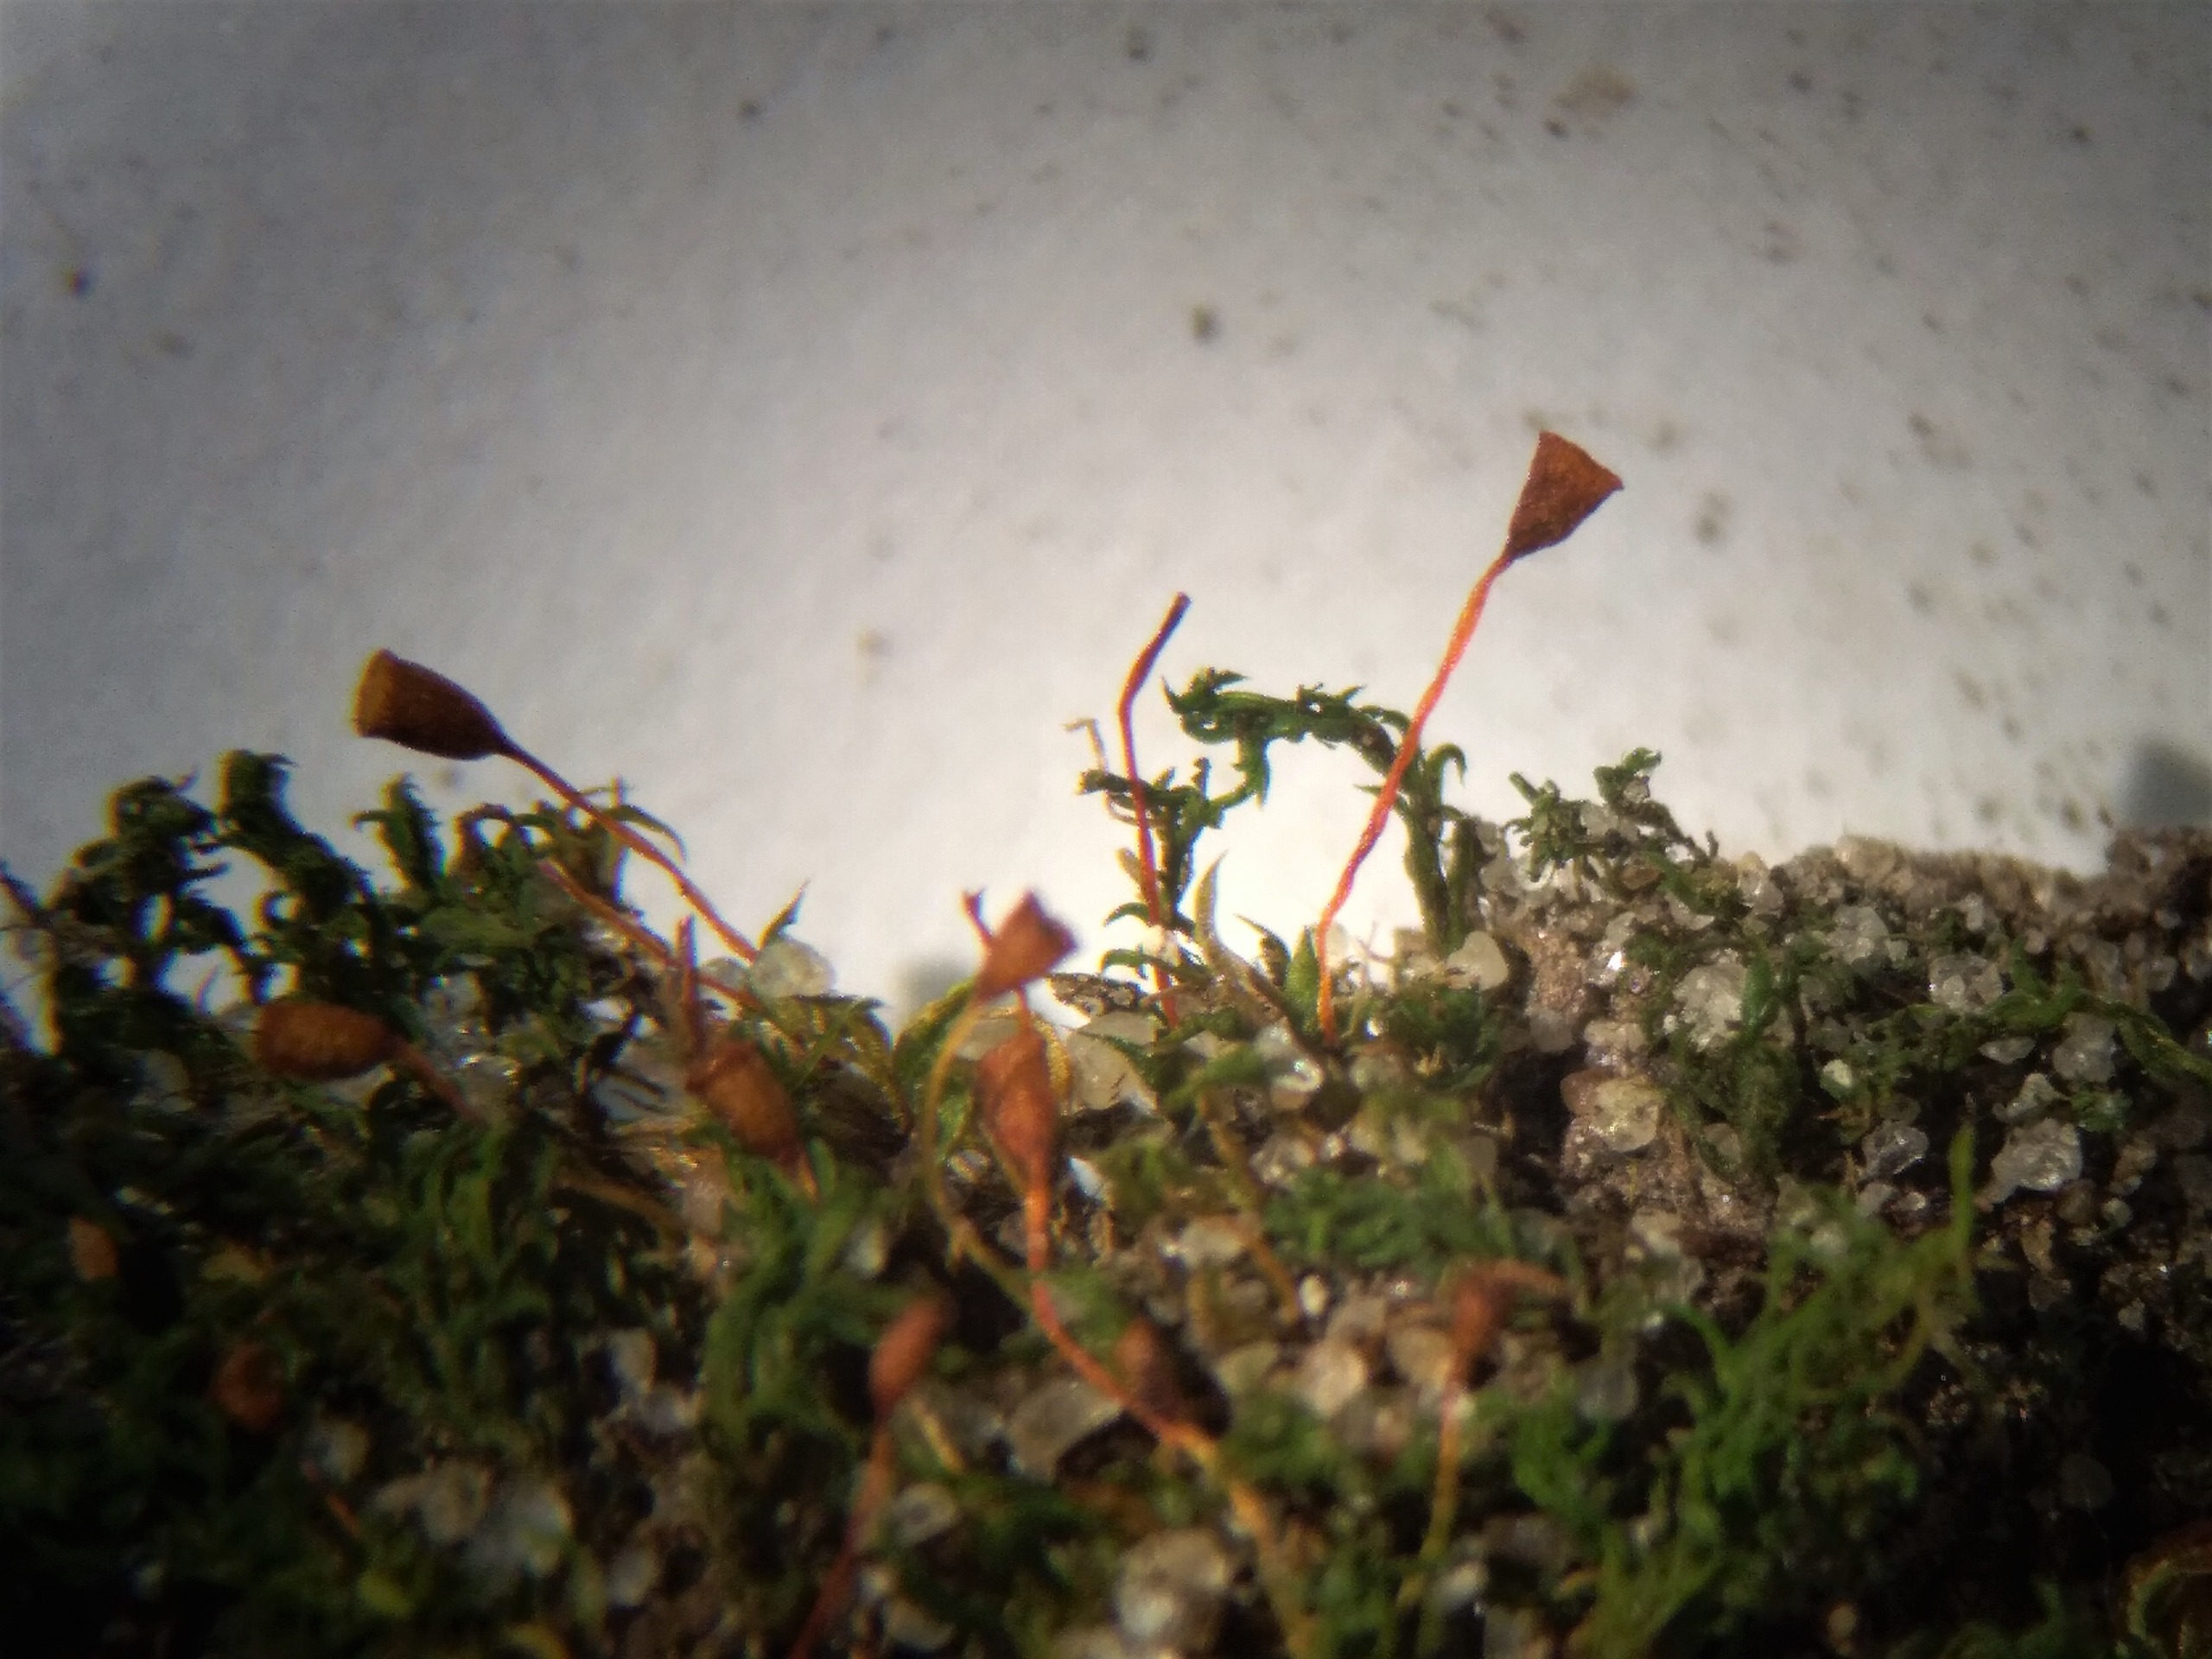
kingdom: Plantae
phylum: Bryophyta
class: Bryopsida
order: Pottiales
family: Pottiaceae
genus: Tortula
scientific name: Tortula truncata
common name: Vidmundet bægermos
